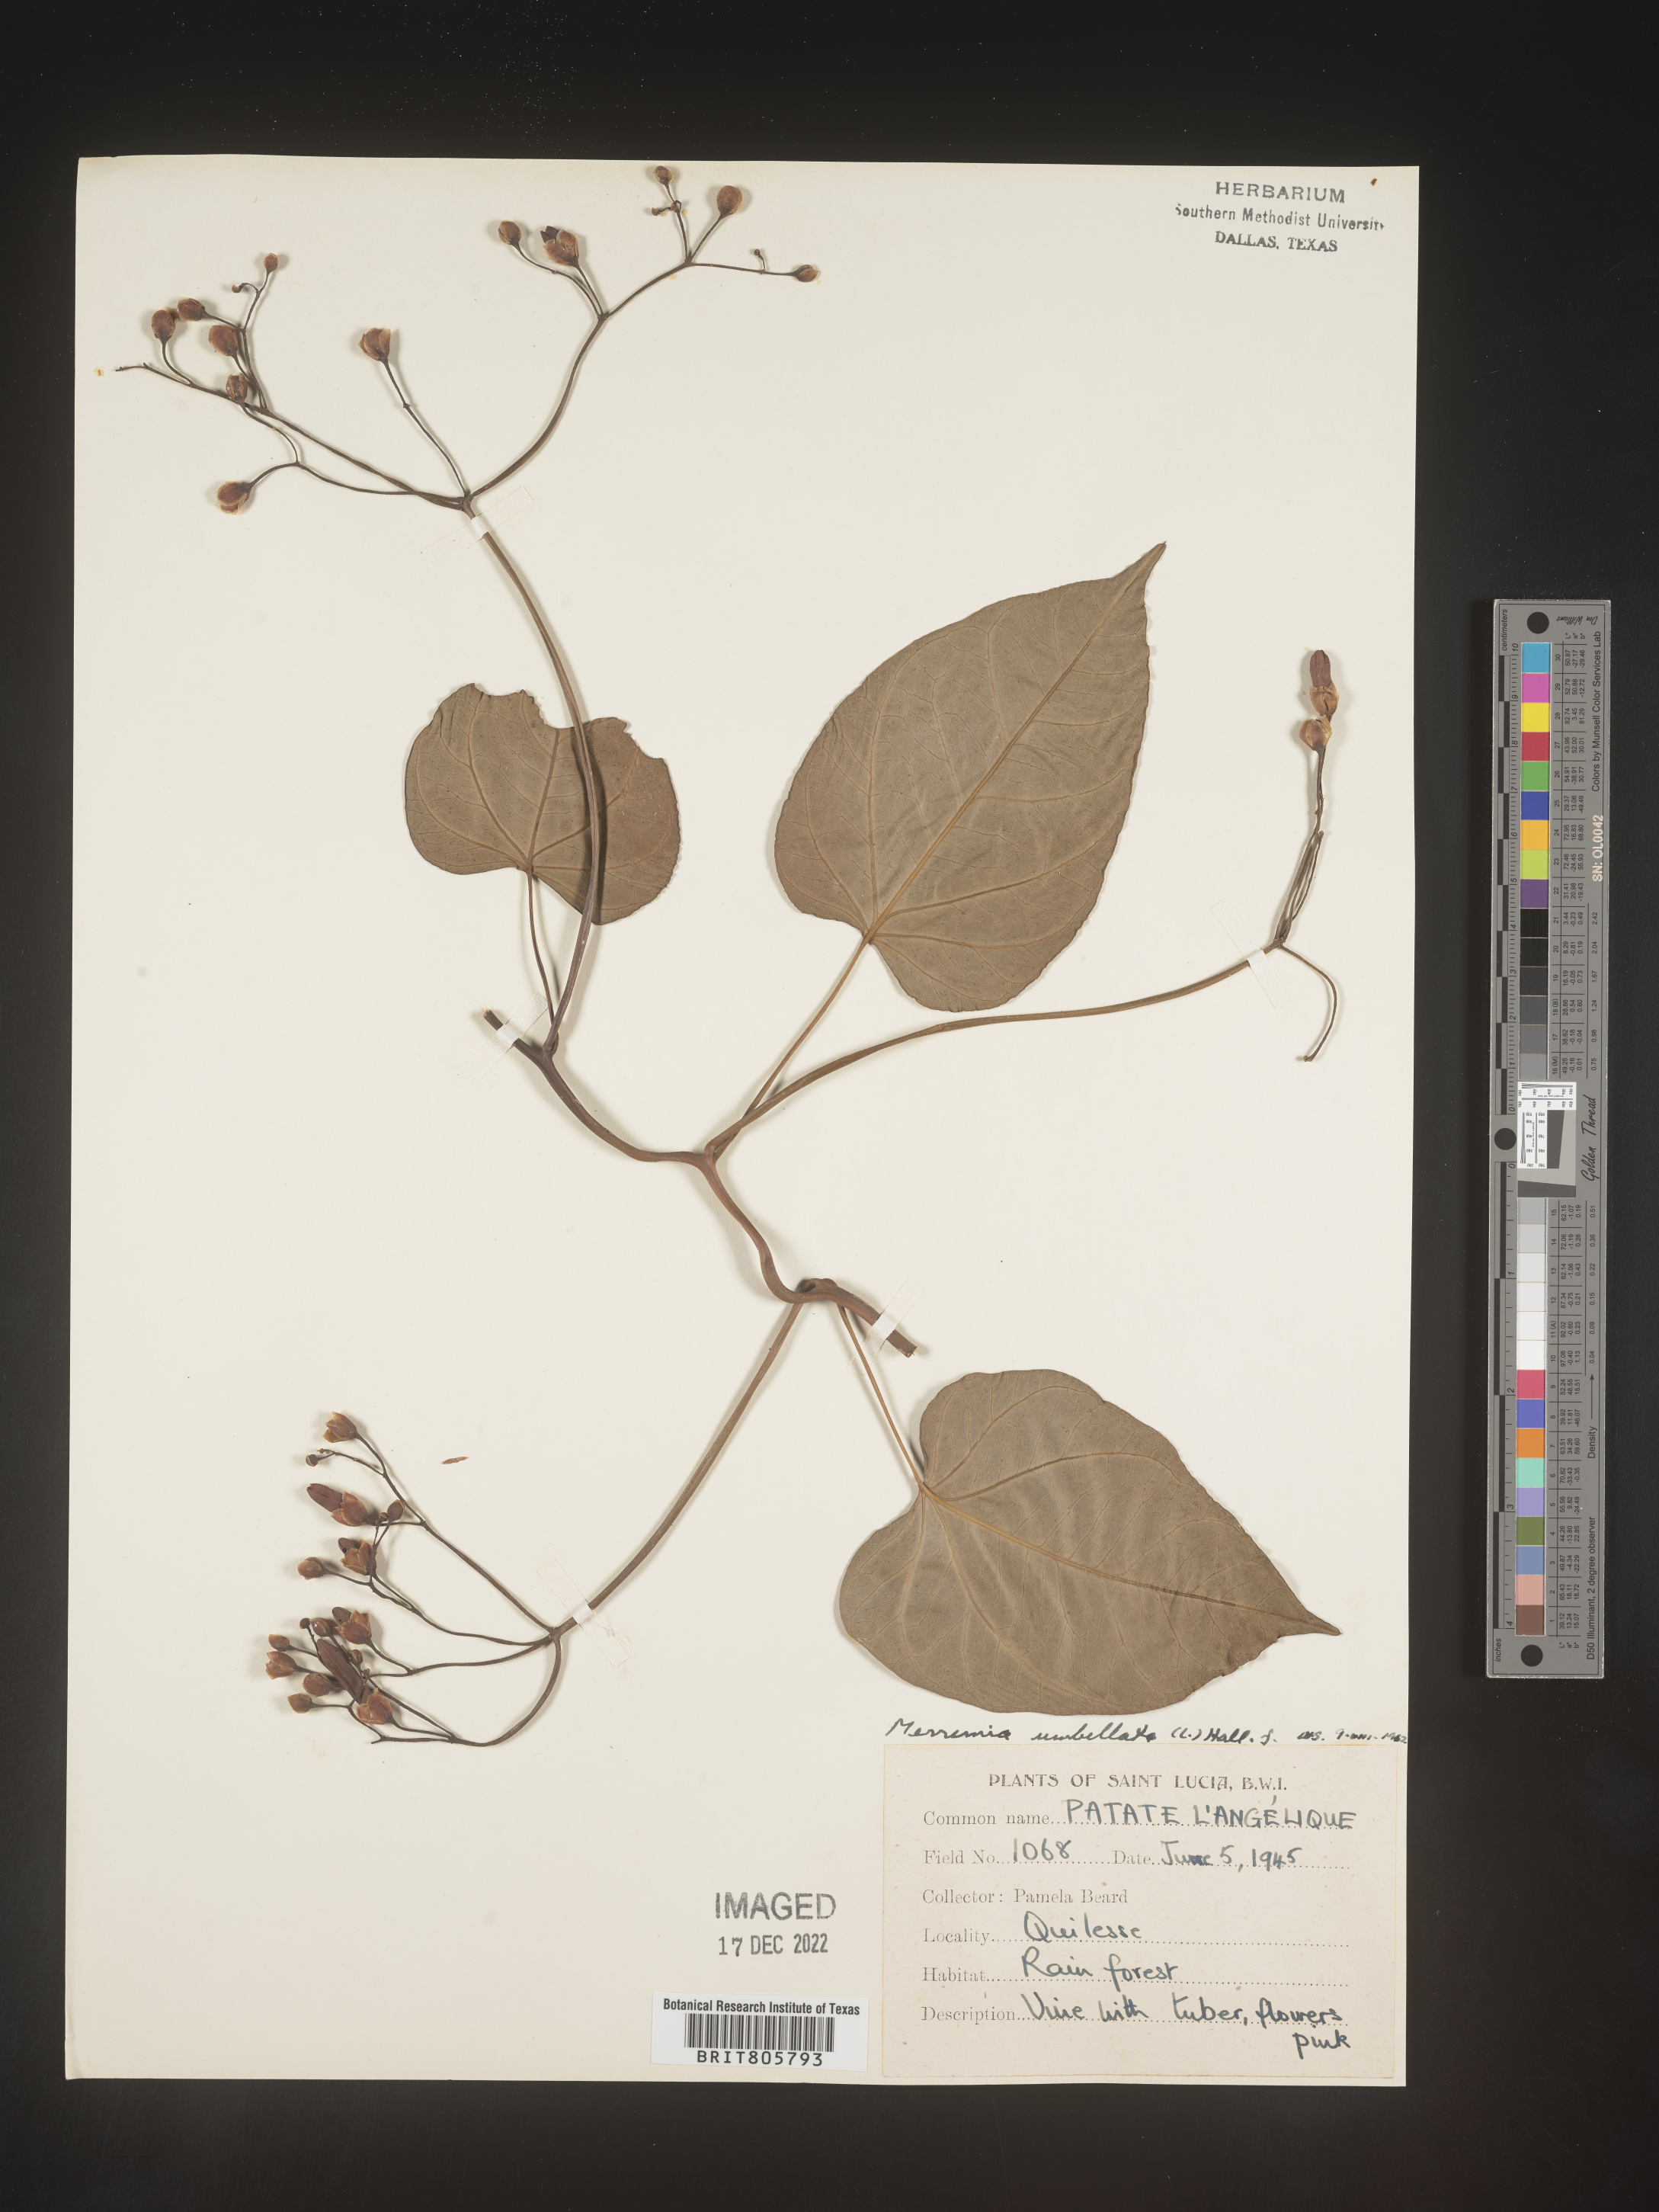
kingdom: Plantae
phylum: Tracheophyta
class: Magnoliopsida
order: Solanales
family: Convolvulaceae
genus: Merremia
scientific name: Merremia
